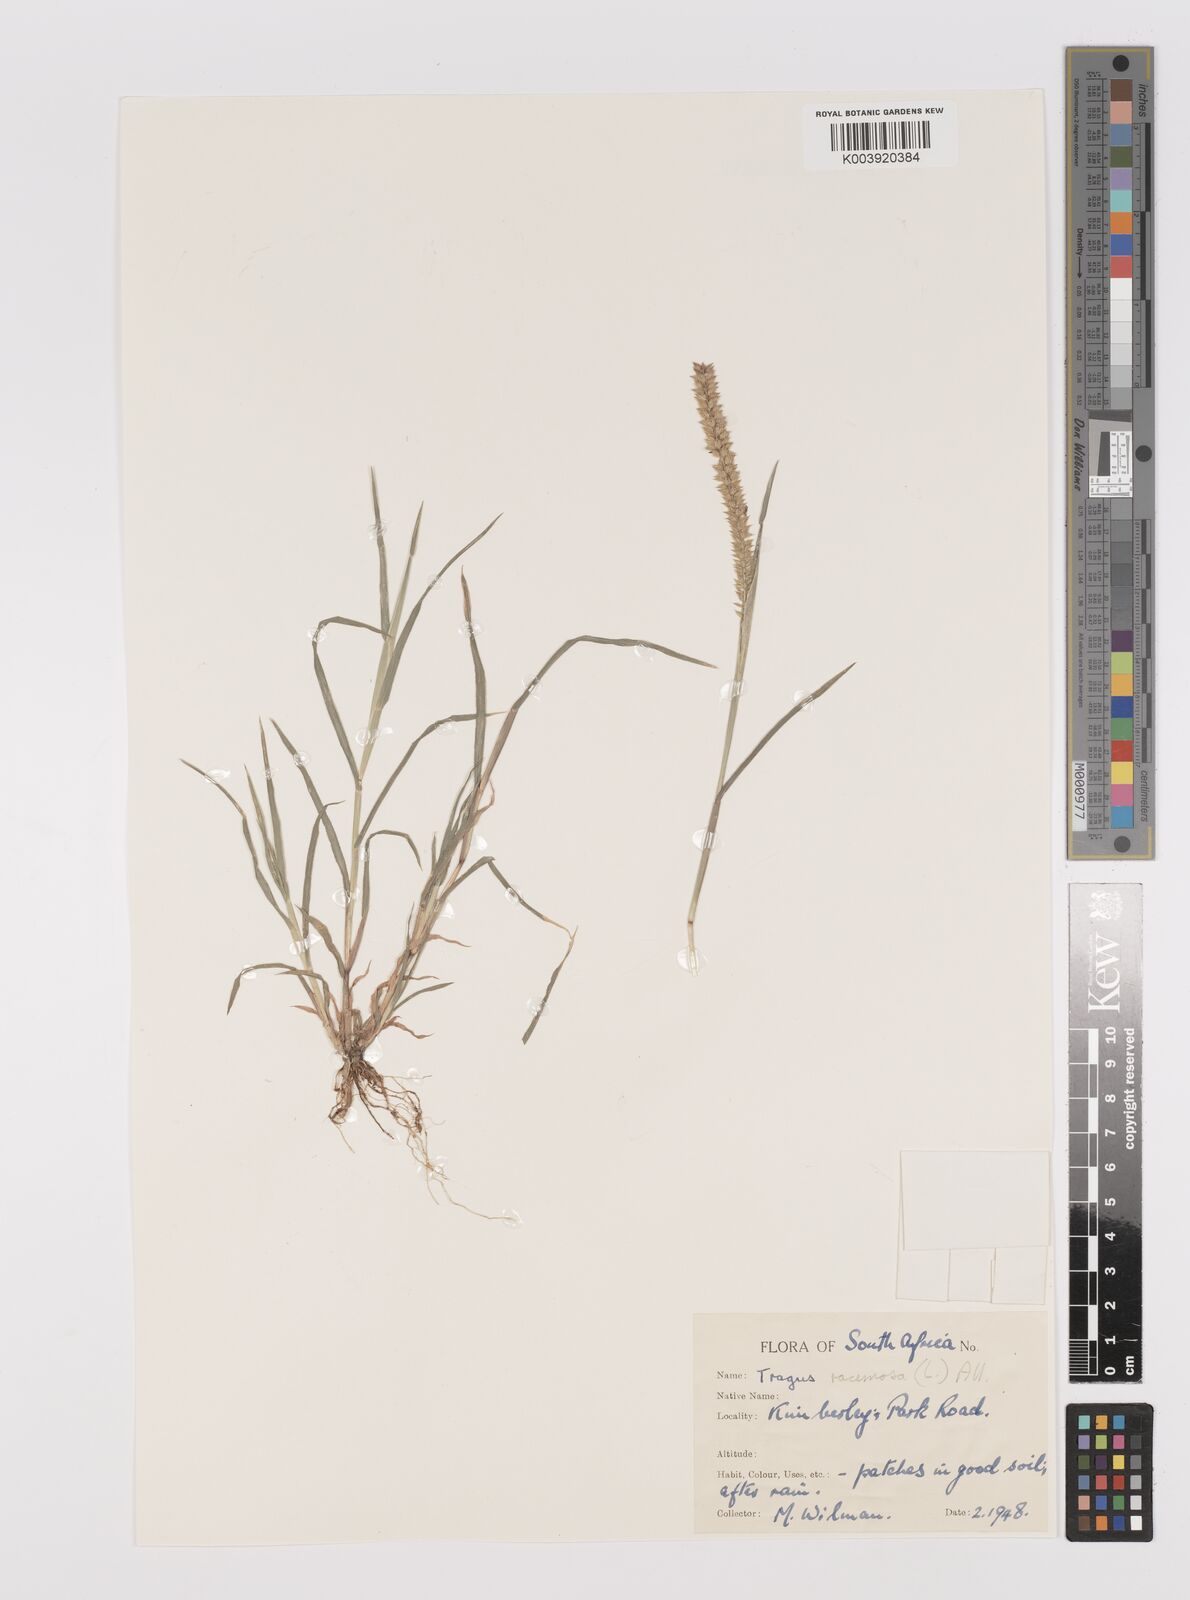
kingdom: Plantae
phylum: Tracheophyta
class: Liliopsida
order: Poales
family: Poaceae
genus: Tragus
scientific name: Tragus berteronianus
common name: African bur-grass
